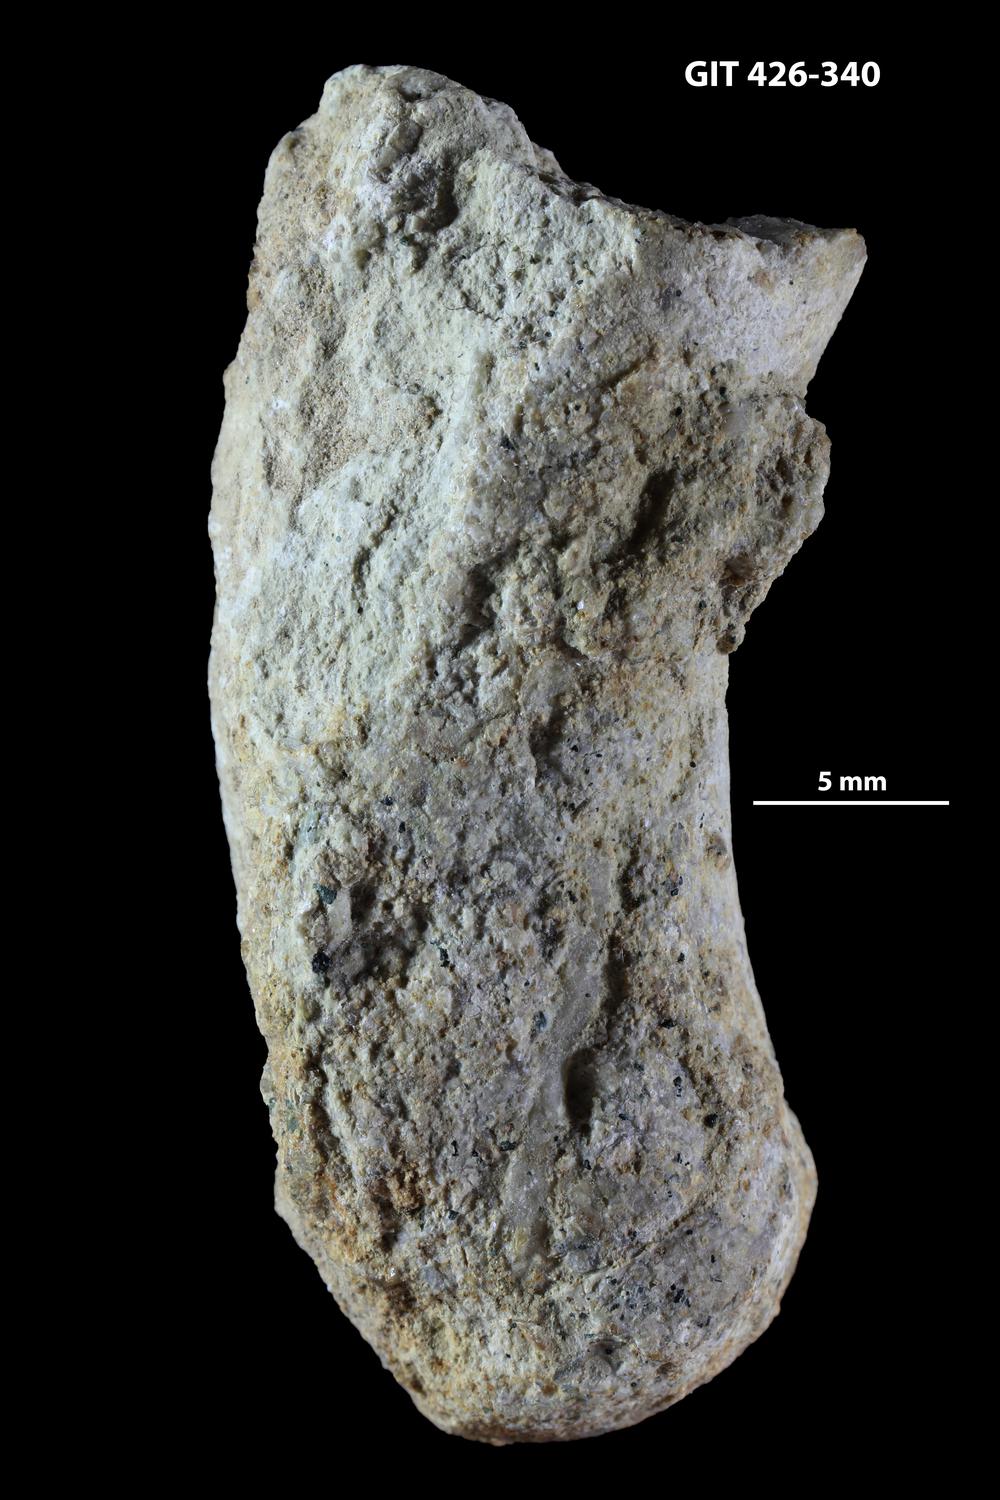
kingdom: Animalia
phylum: Mollusca
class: Cephalopoda
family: Estonioceratidae
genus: Tragoceras
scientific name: Tragoceras
